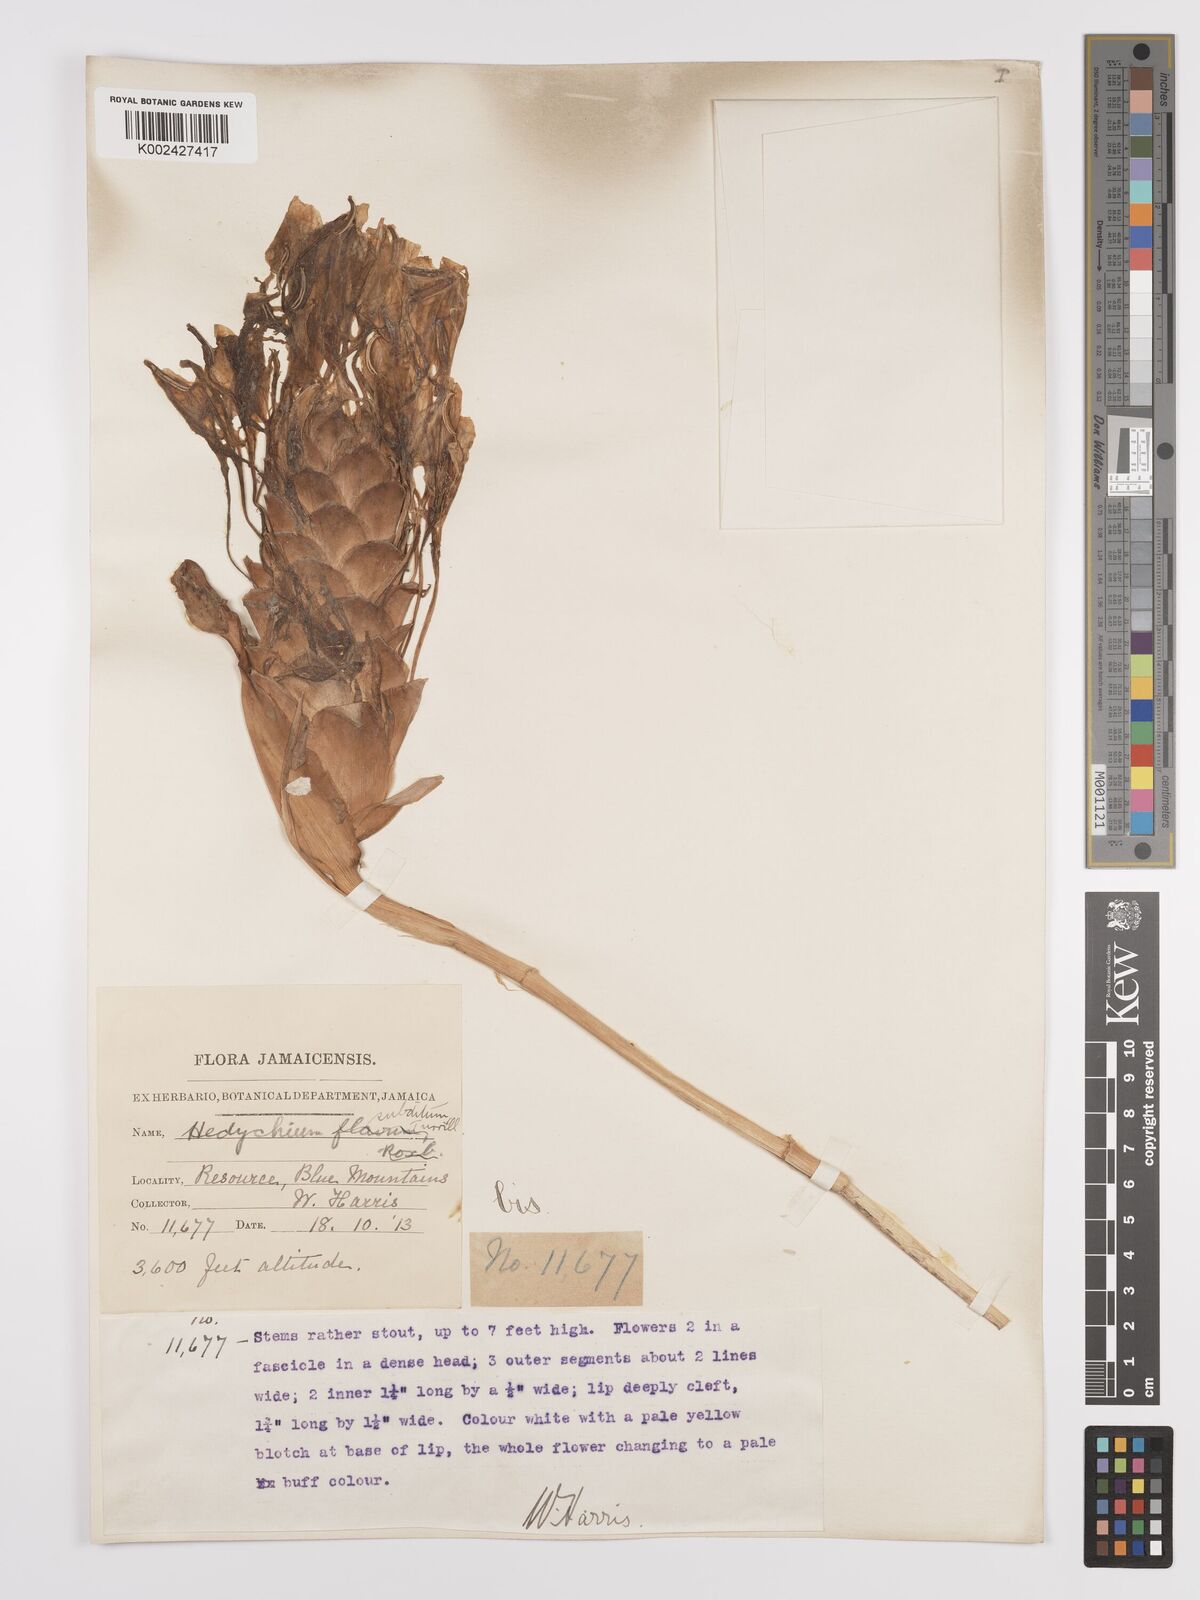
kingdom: Plantae
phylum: Tracheophyta
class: Liliopsida
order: Zingiberales
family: Zingiberaceae
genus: Hedychium
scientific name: Hedychium flavescens
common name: Yellow ginger
